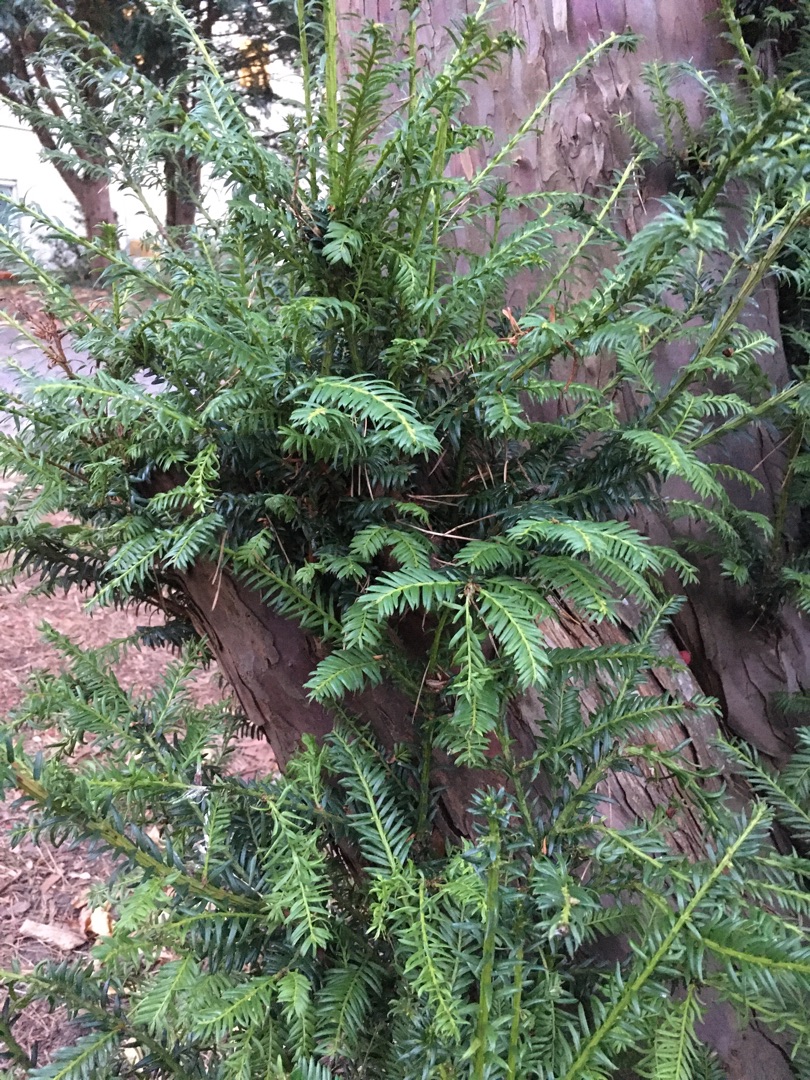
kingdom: Plantae
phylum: Tracheophyta
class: Pinopsida
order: Pinales
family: Taxaceae
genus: Taxus
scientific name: Taxus baccata
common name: Almindelig taks
